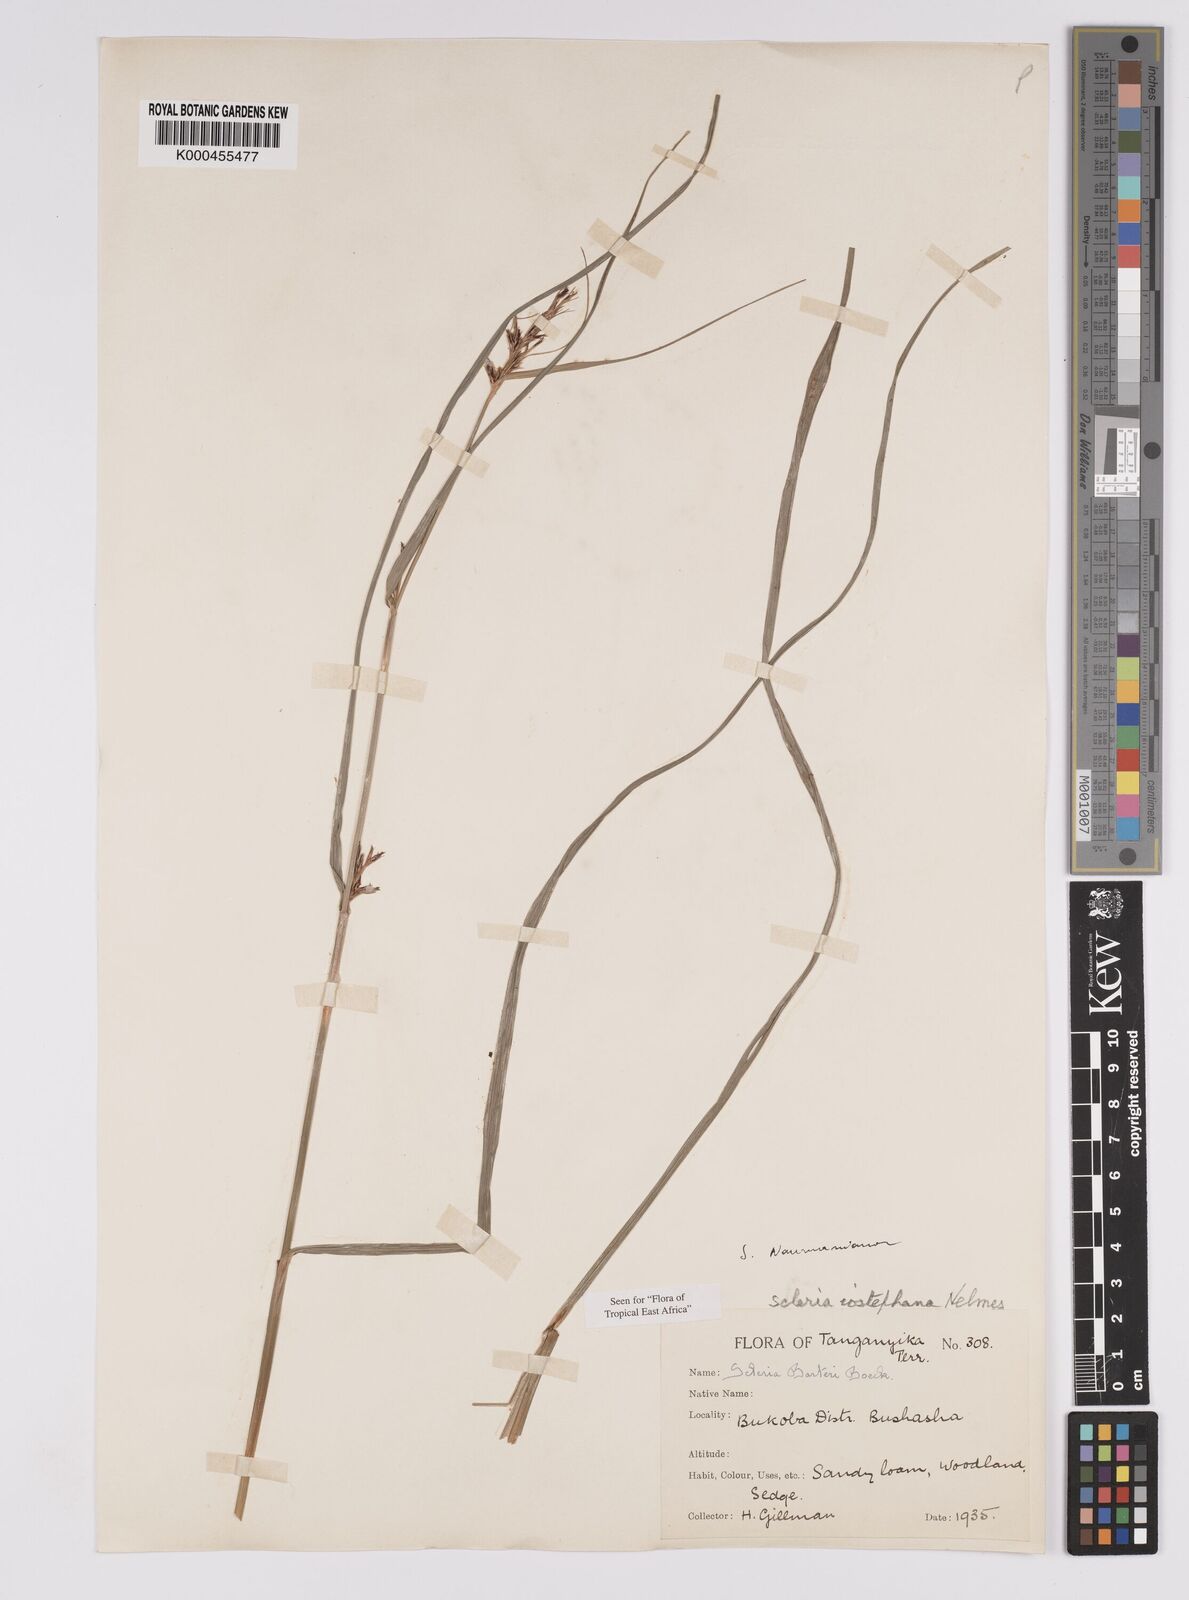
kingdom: Plantae
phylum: Tracheophyta
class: Liliopsida
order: Poales
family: Cyperaceae
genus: Scleria
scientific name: Scleria iostephana
